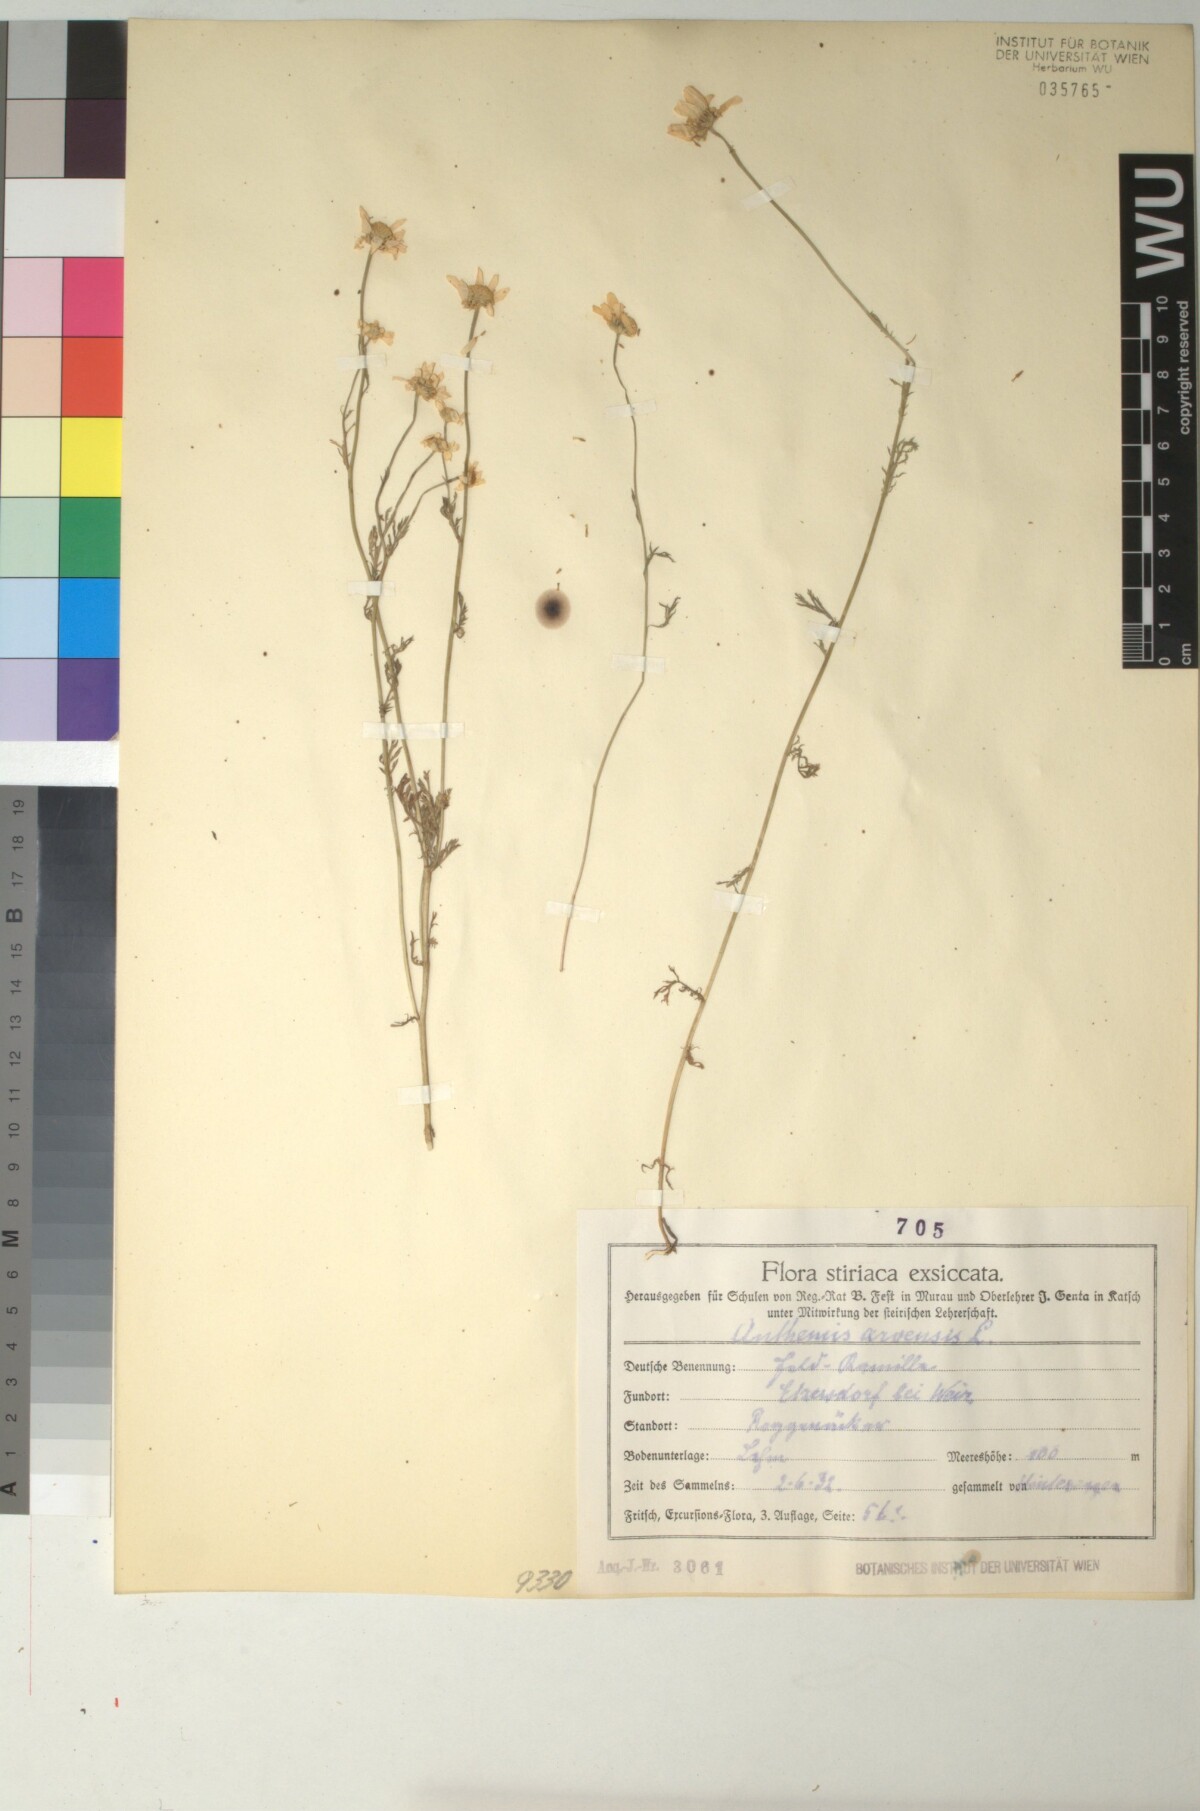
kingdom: Plantae
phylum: Tracheophyta
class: Magnoliopsida
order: Asterales
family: Asteraceae
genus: Anthemis
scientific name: Anthemis arvensis
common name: Corn chamomile
